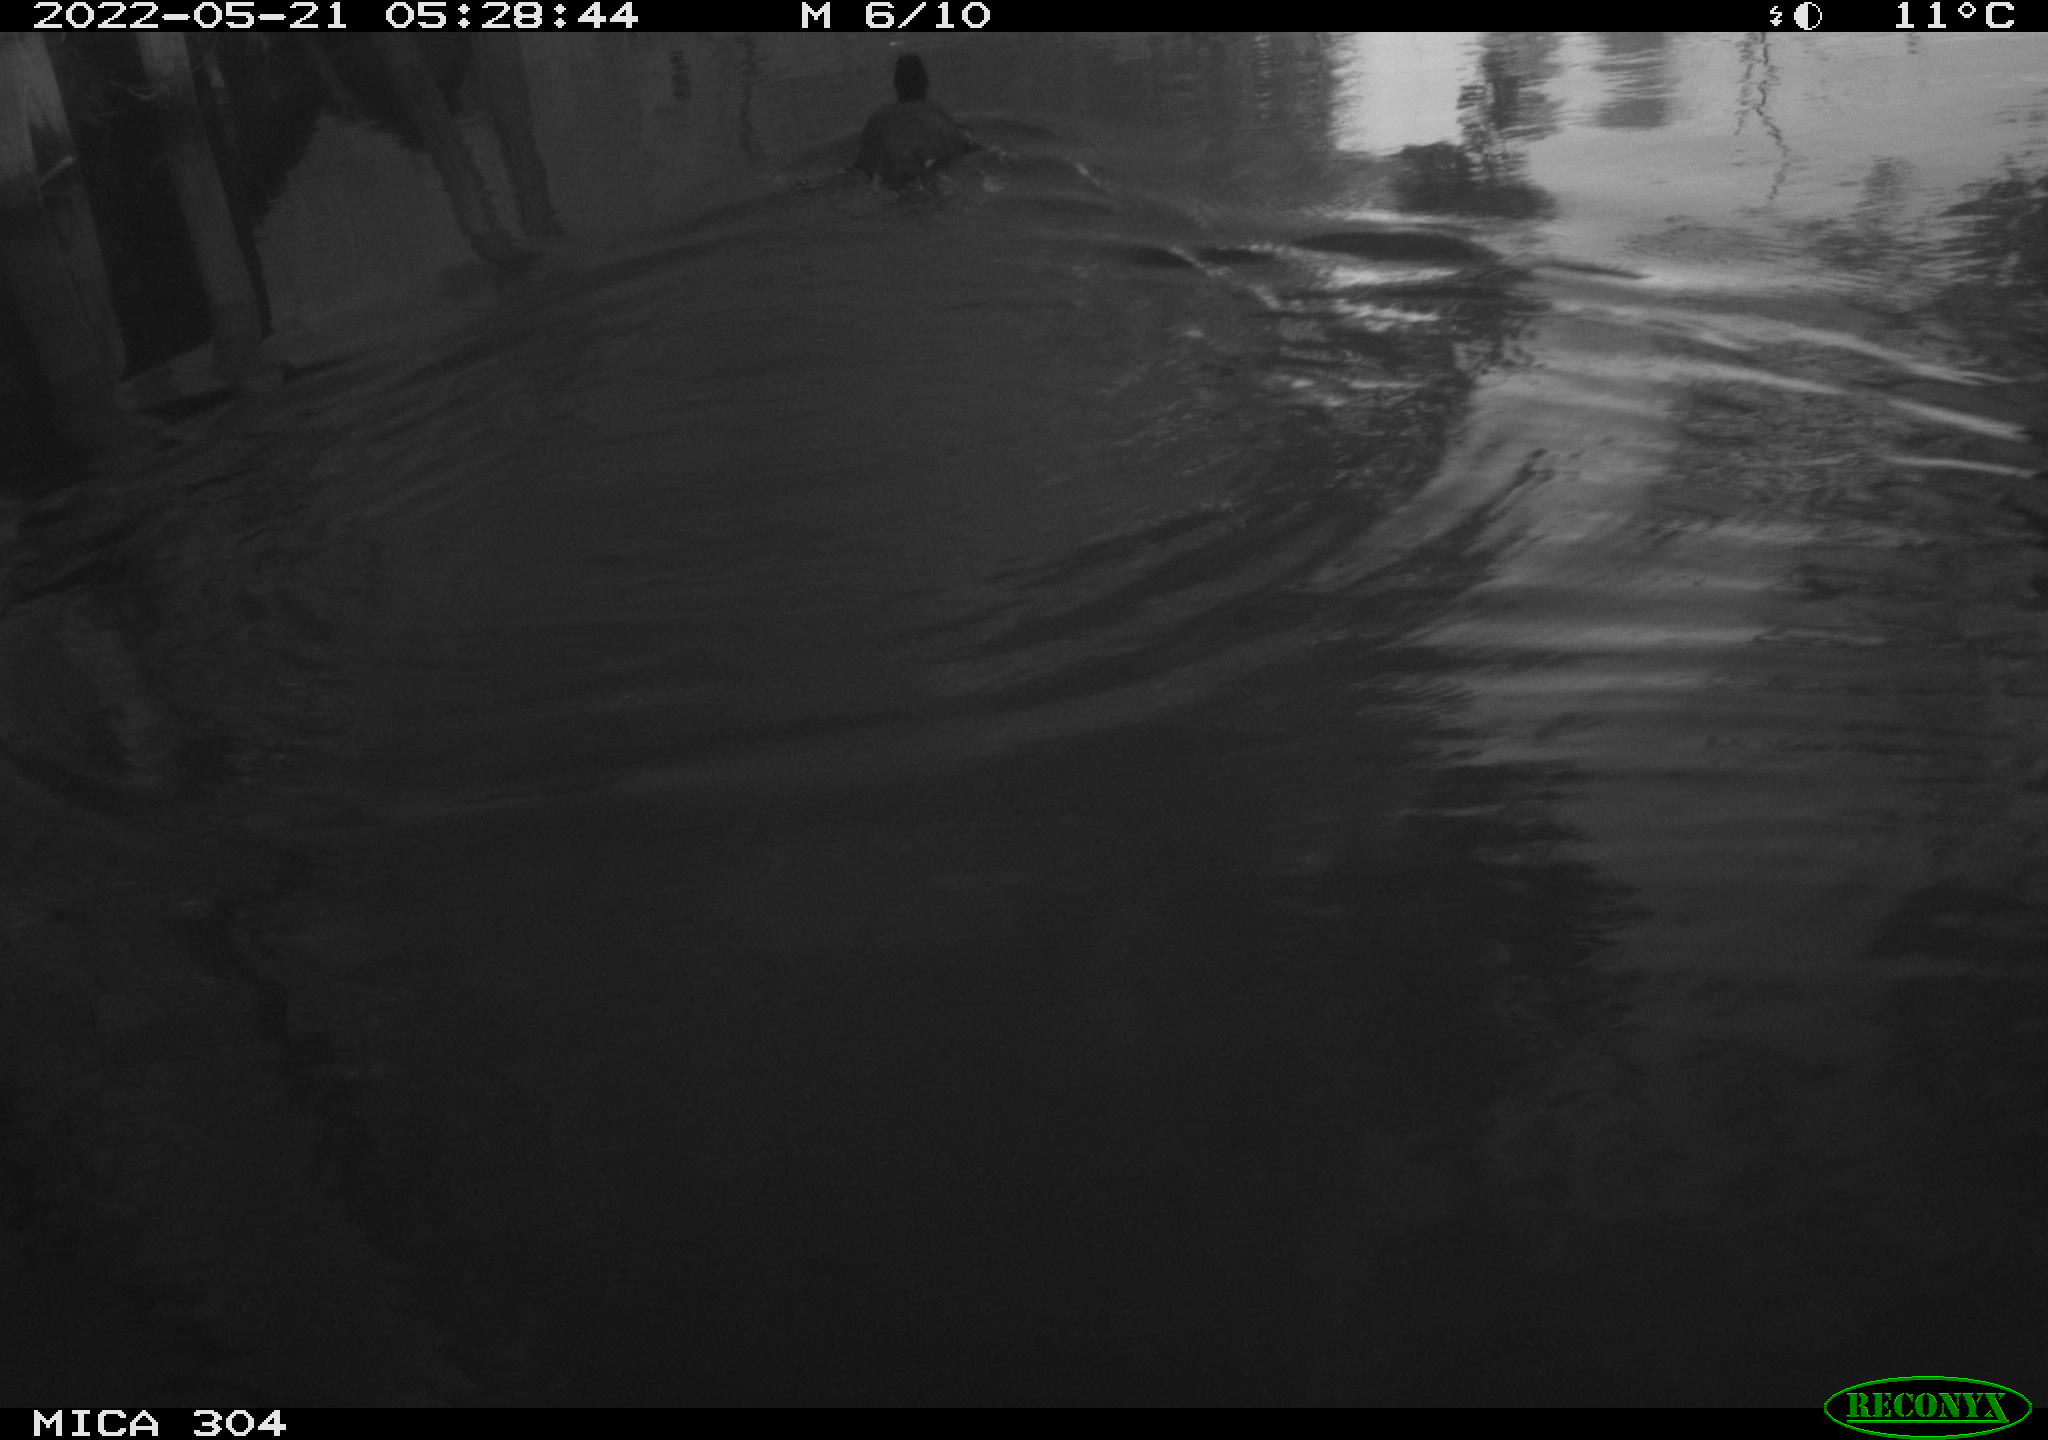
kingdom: Animalia
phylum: Chordata
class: Aves
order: Gruiformes
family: Rallidae
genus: Fulica
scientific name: Fulica atra
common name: Eurasian coot
